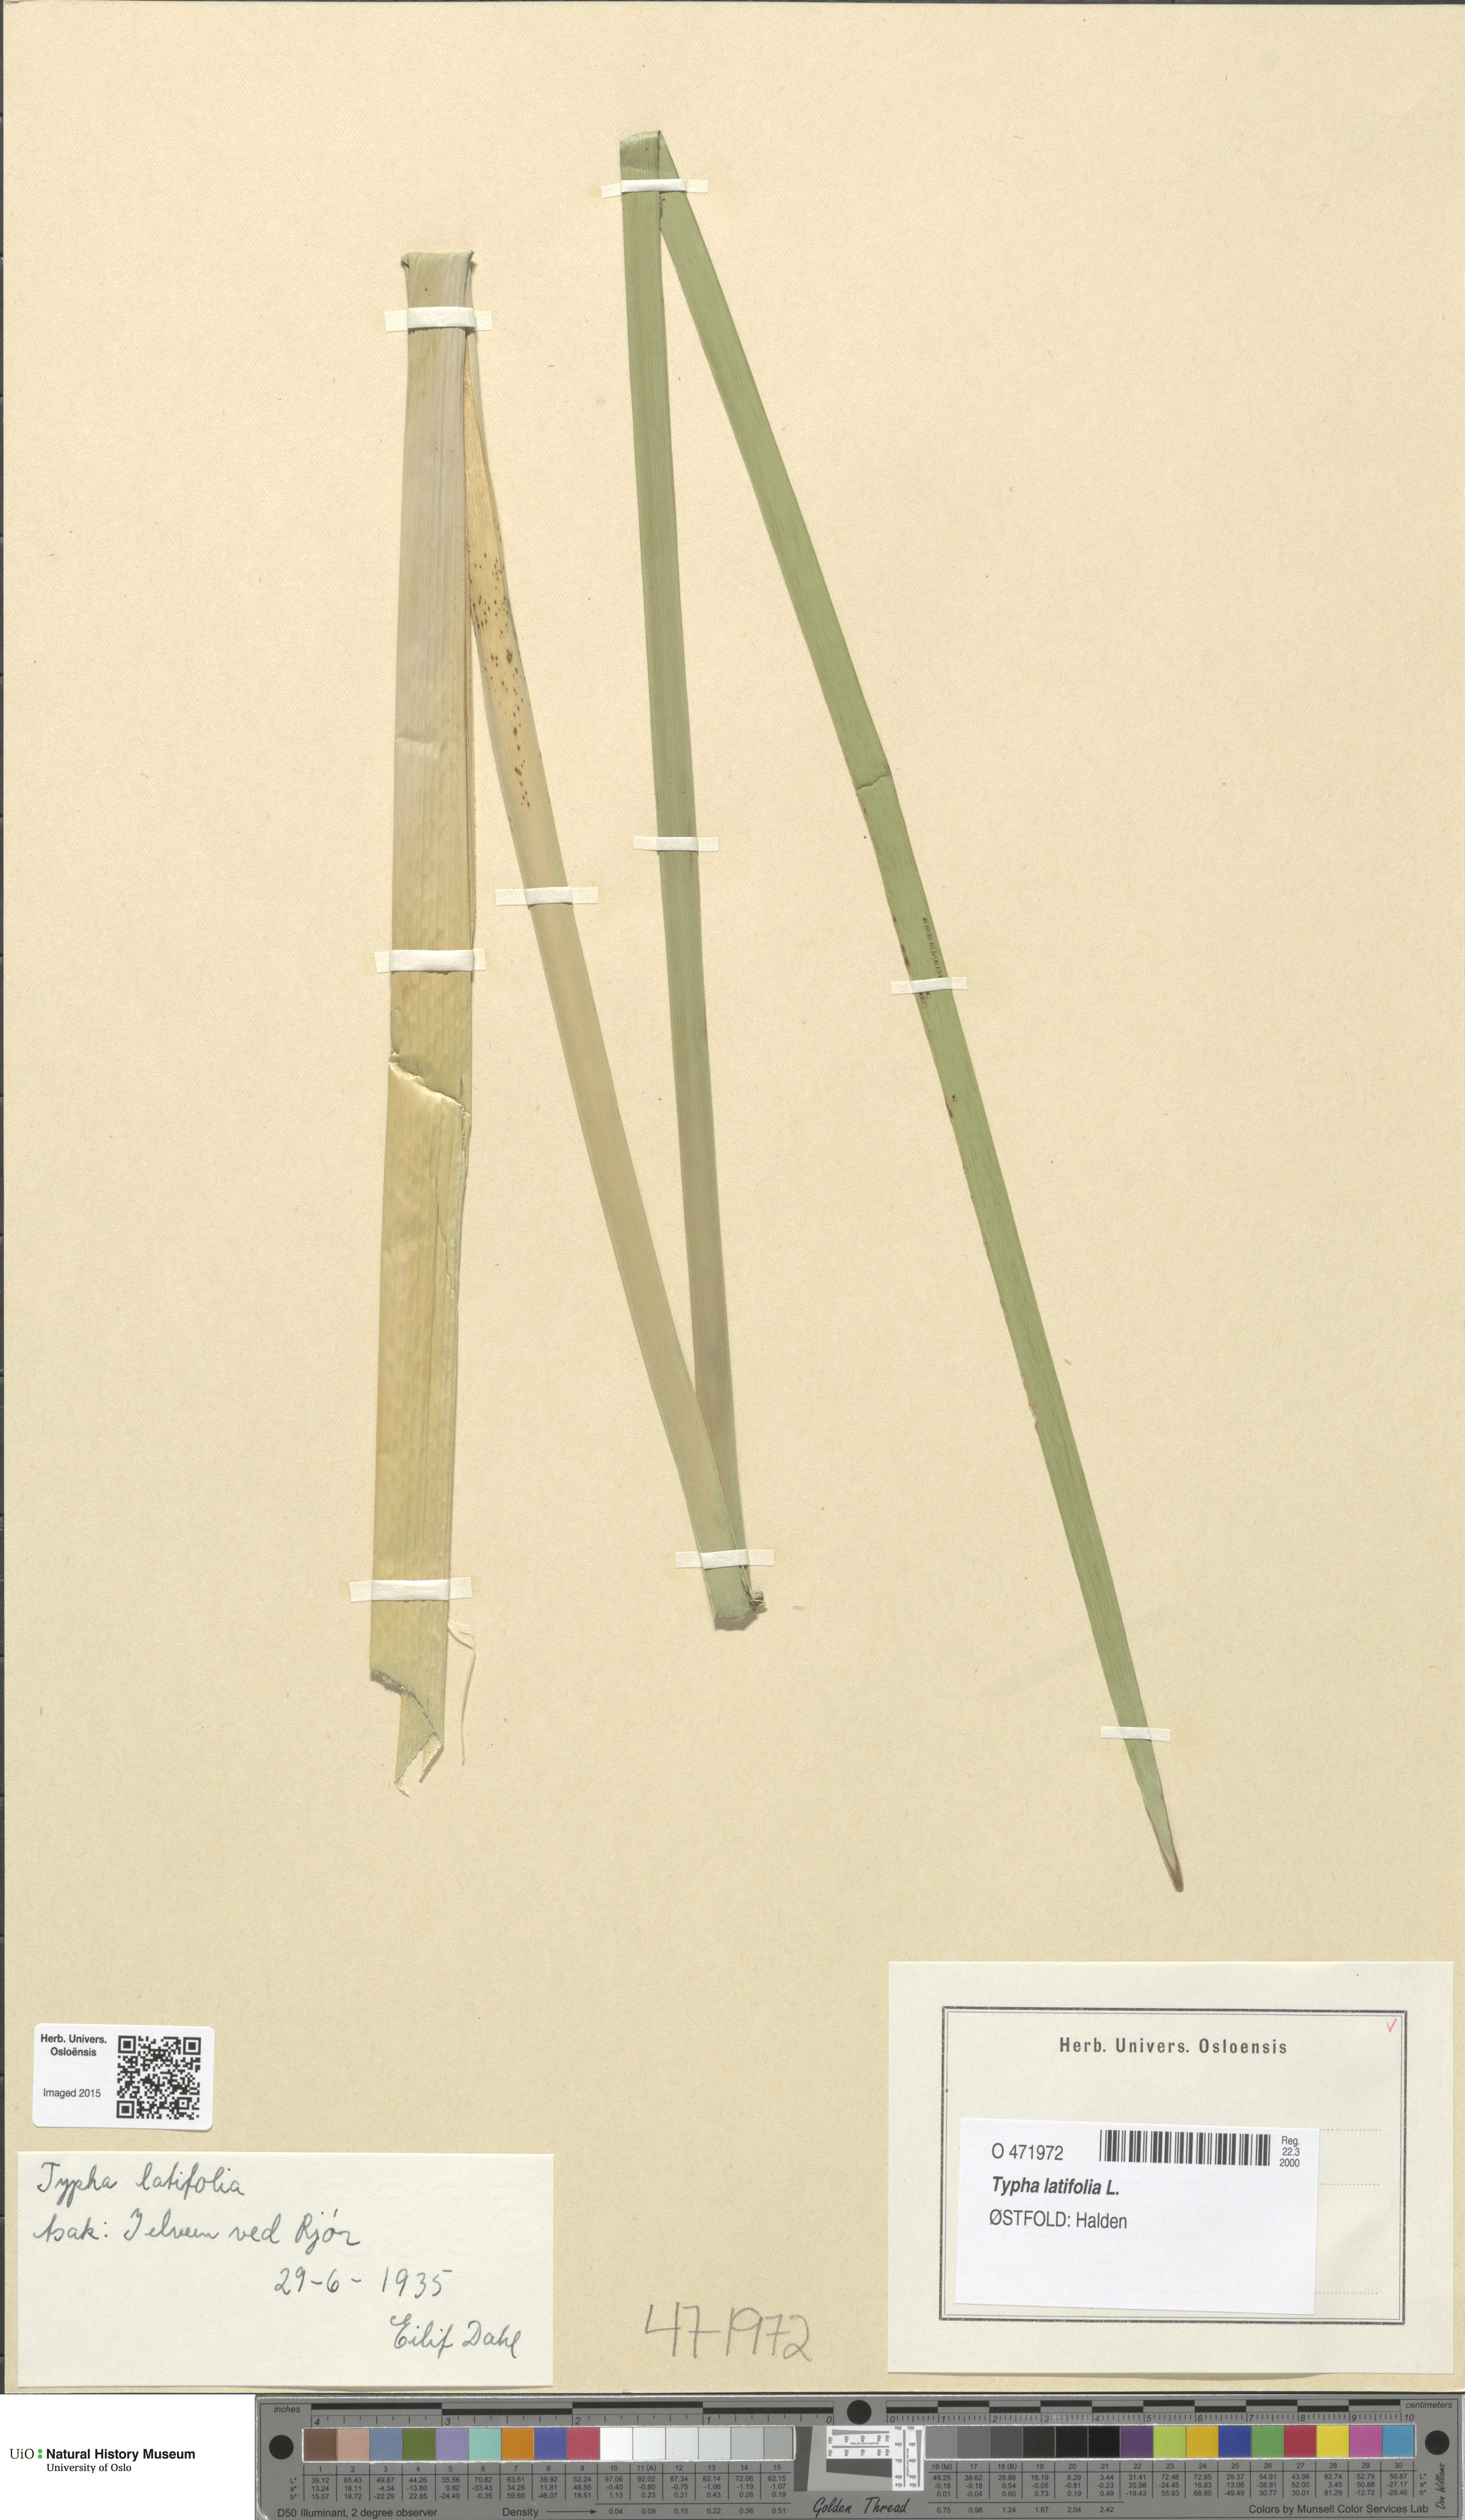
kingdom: Plantae
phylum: Tracheophyta
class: Liliopsida
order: Poales
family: Typhaceae
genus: Typha
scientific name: Typha latifolia
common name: Broadleaf cattail
